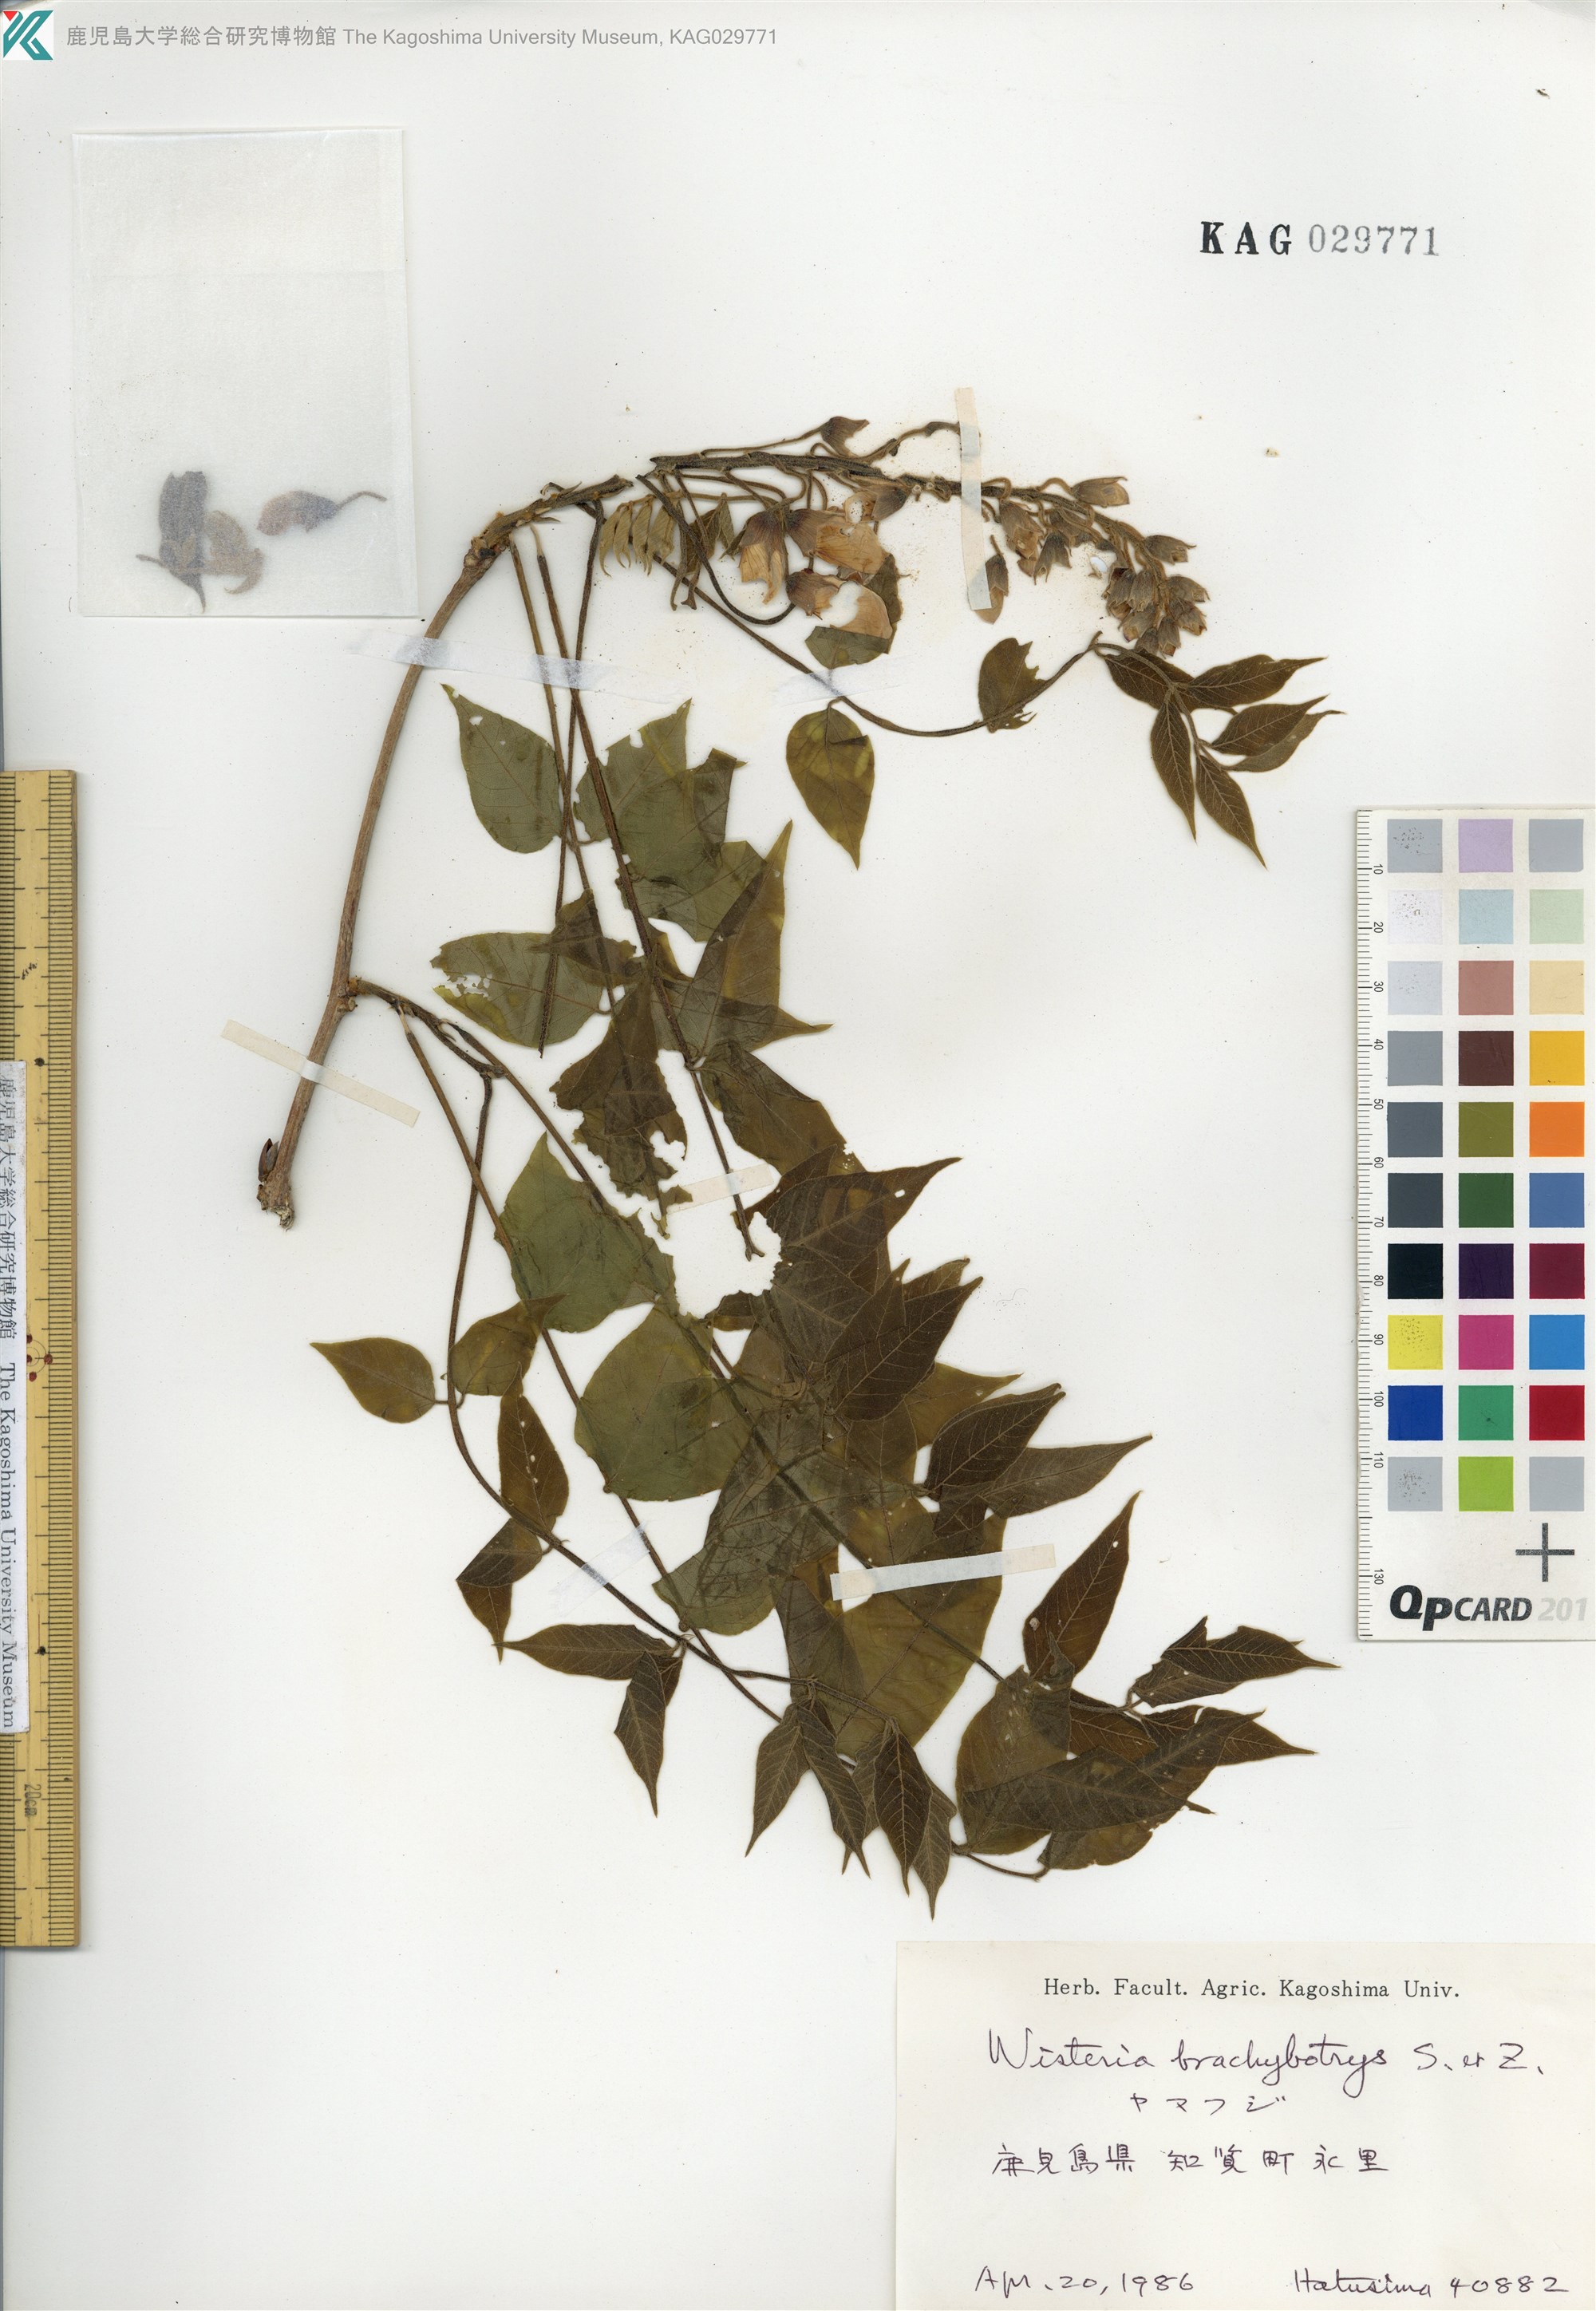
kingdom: Plantae
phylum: Tracheophyta
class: Magnoliopsida
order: Fabales
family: Fabaceae
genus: Wisteria
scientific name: Wisteria brachybotrys
